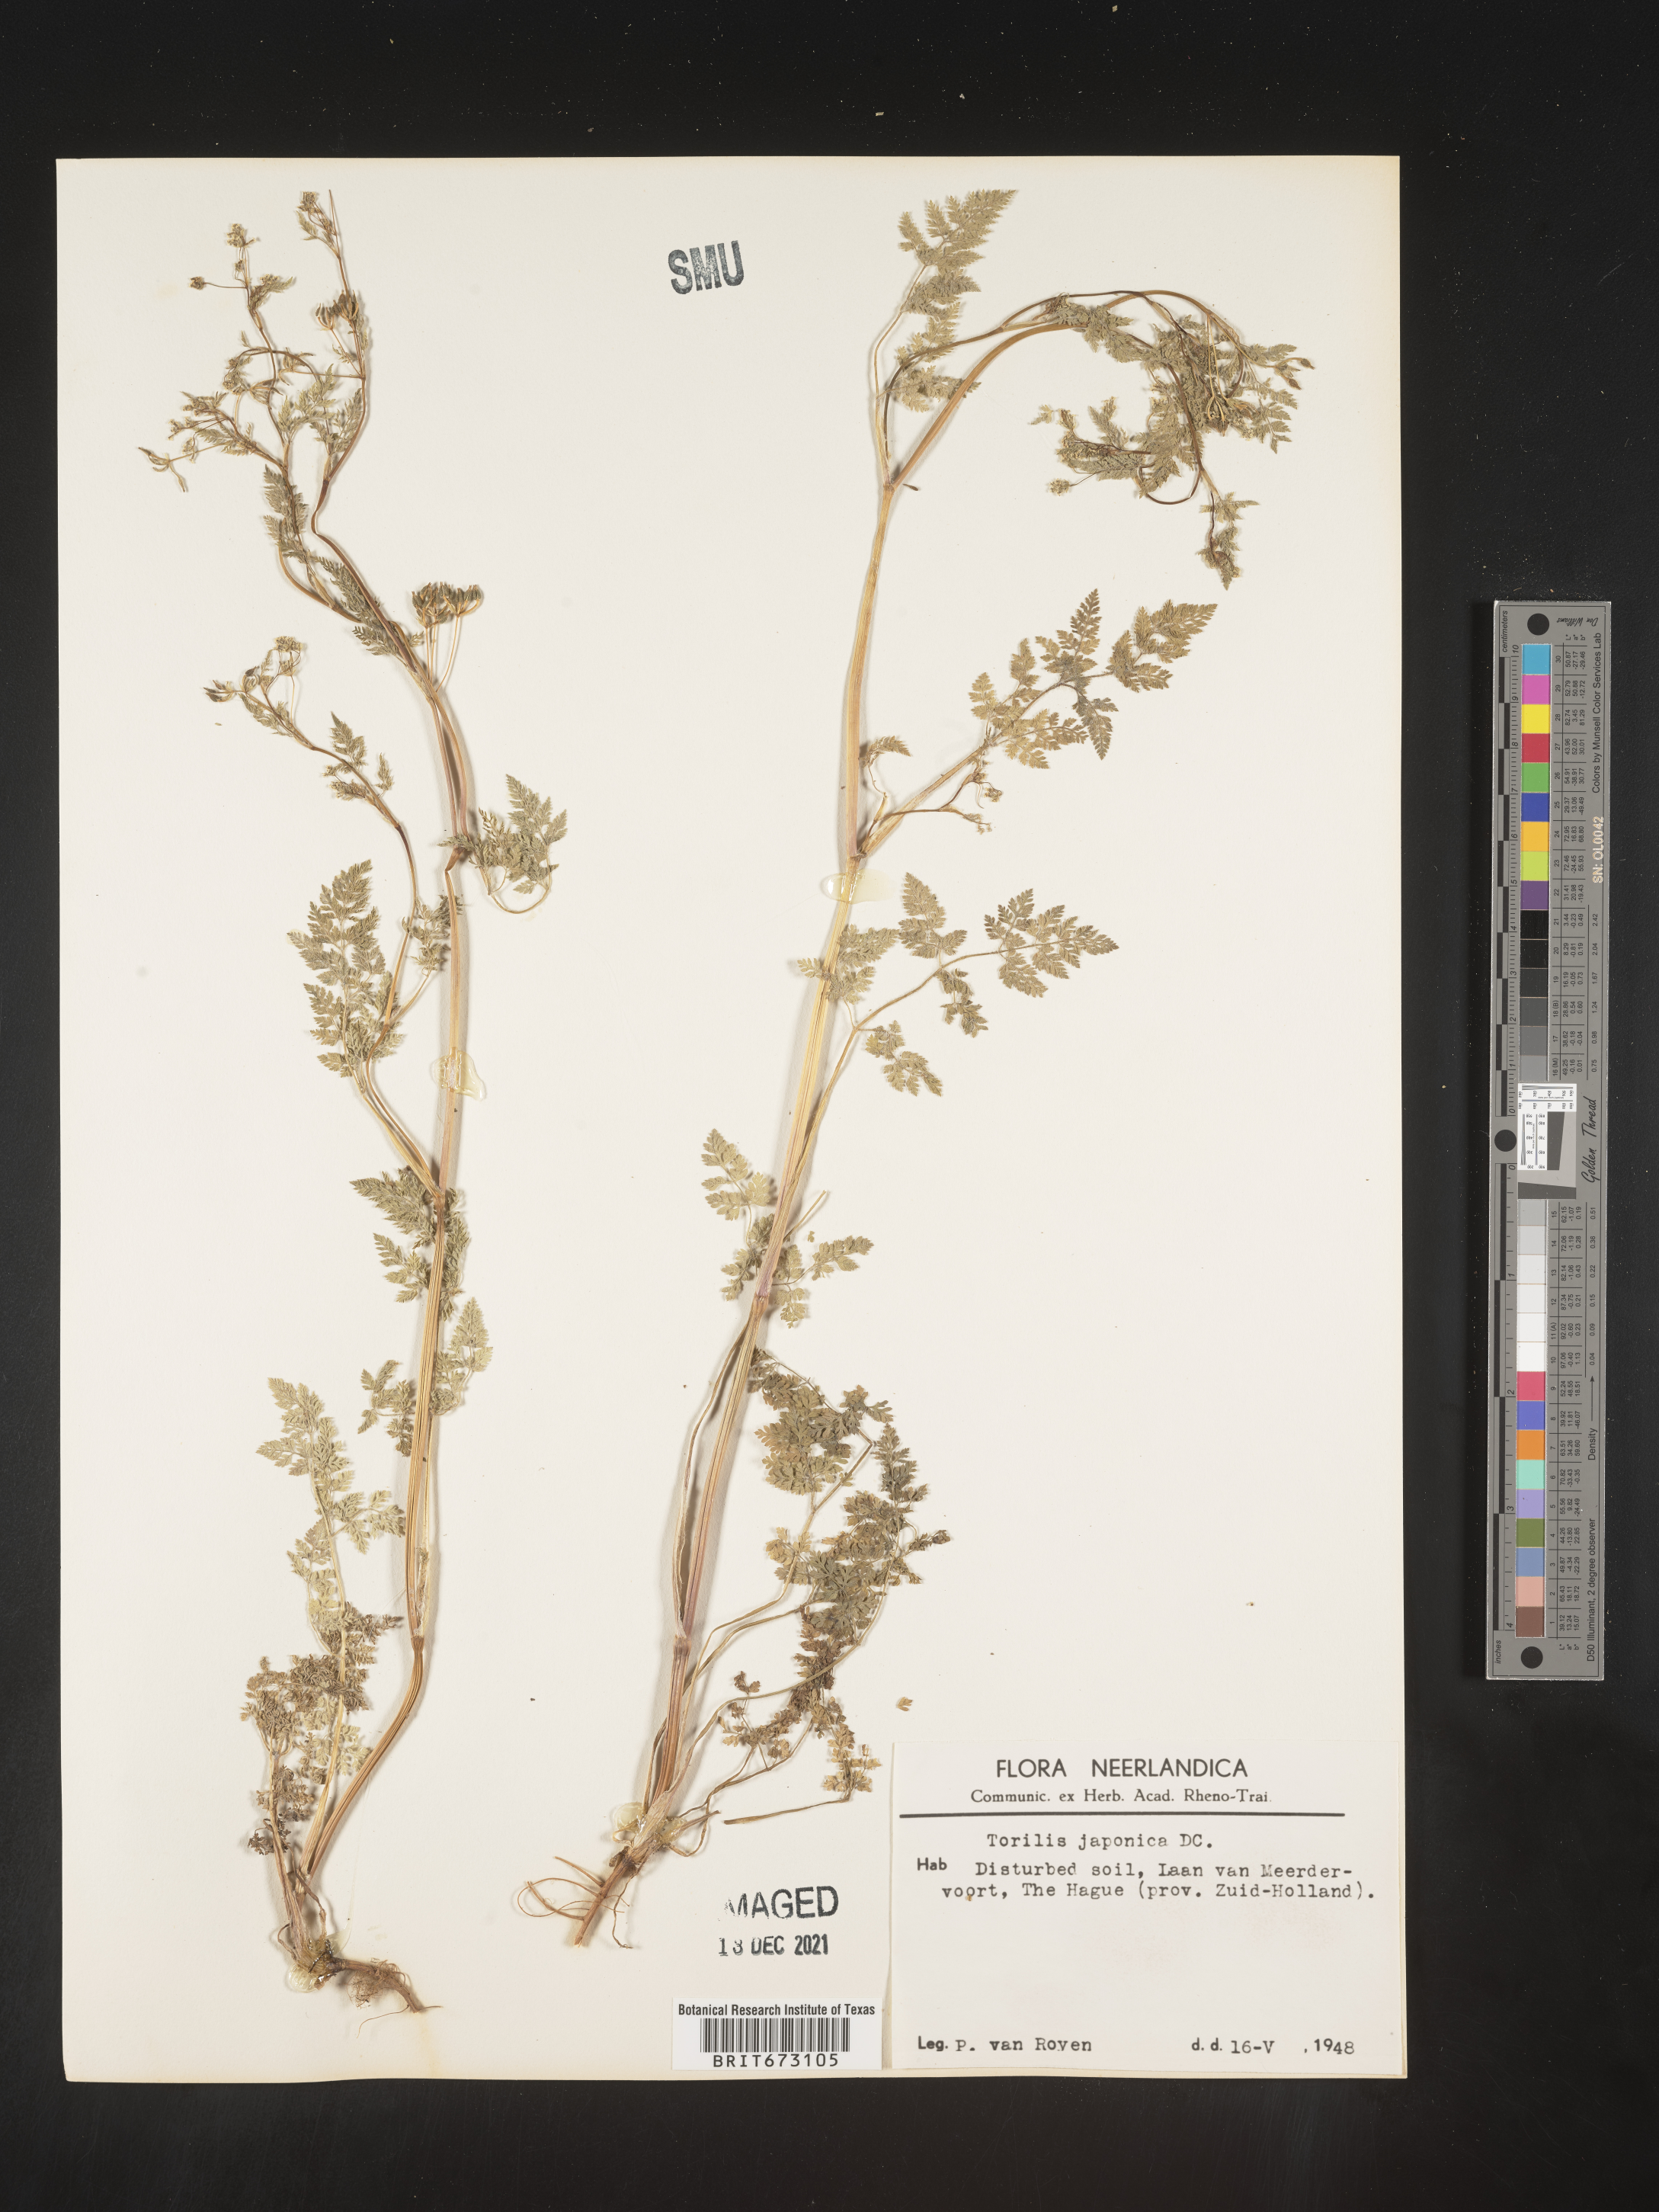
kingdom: Plantae
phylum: Tracheophyta
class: Magnoliopsida
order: Apiales
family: Apiaceae
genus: Torilis
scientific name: Torilis
